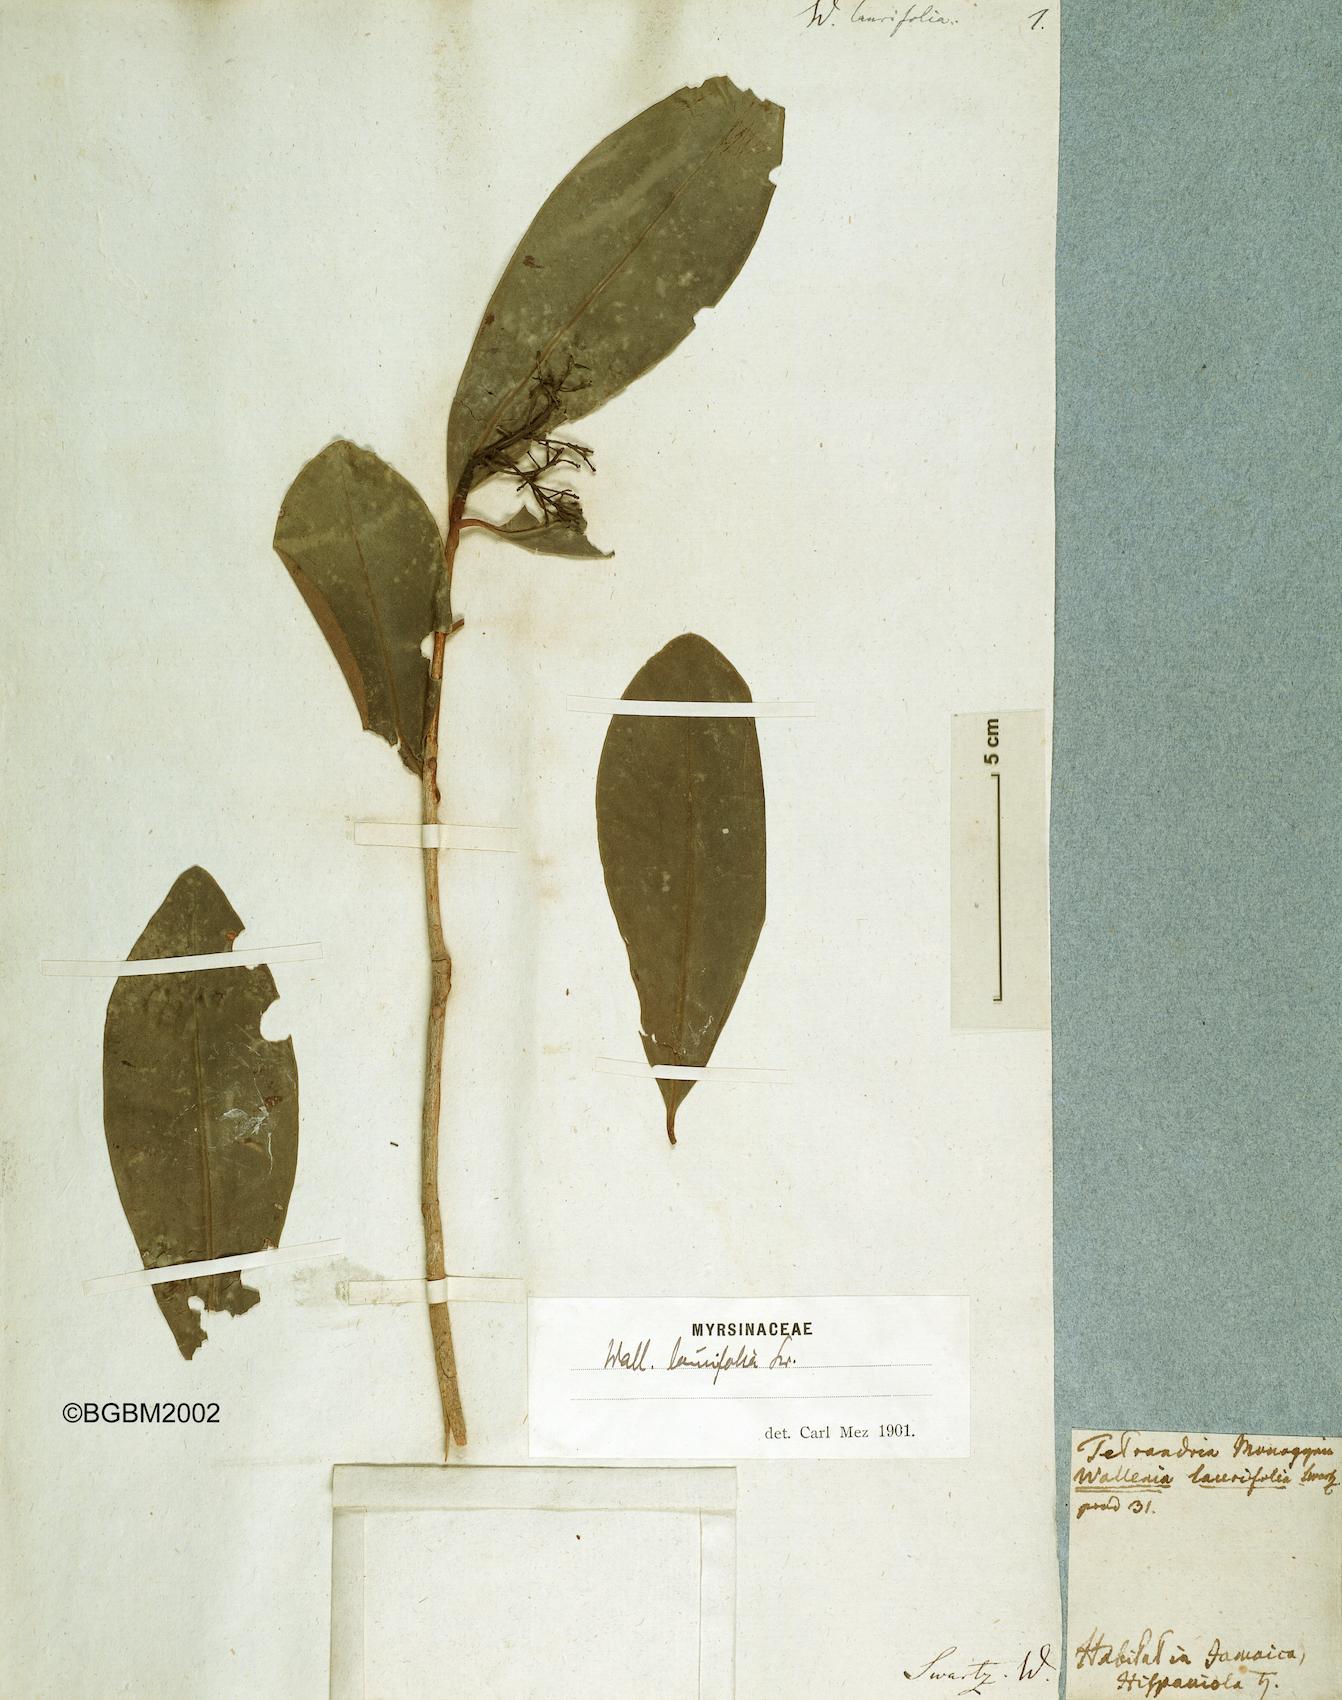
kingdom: Plantae
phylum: Tracheophyta
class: Magnoliopsida
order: Ericales
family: Primulaceae
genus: Wallenia
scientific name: Wallenia laurifolia
